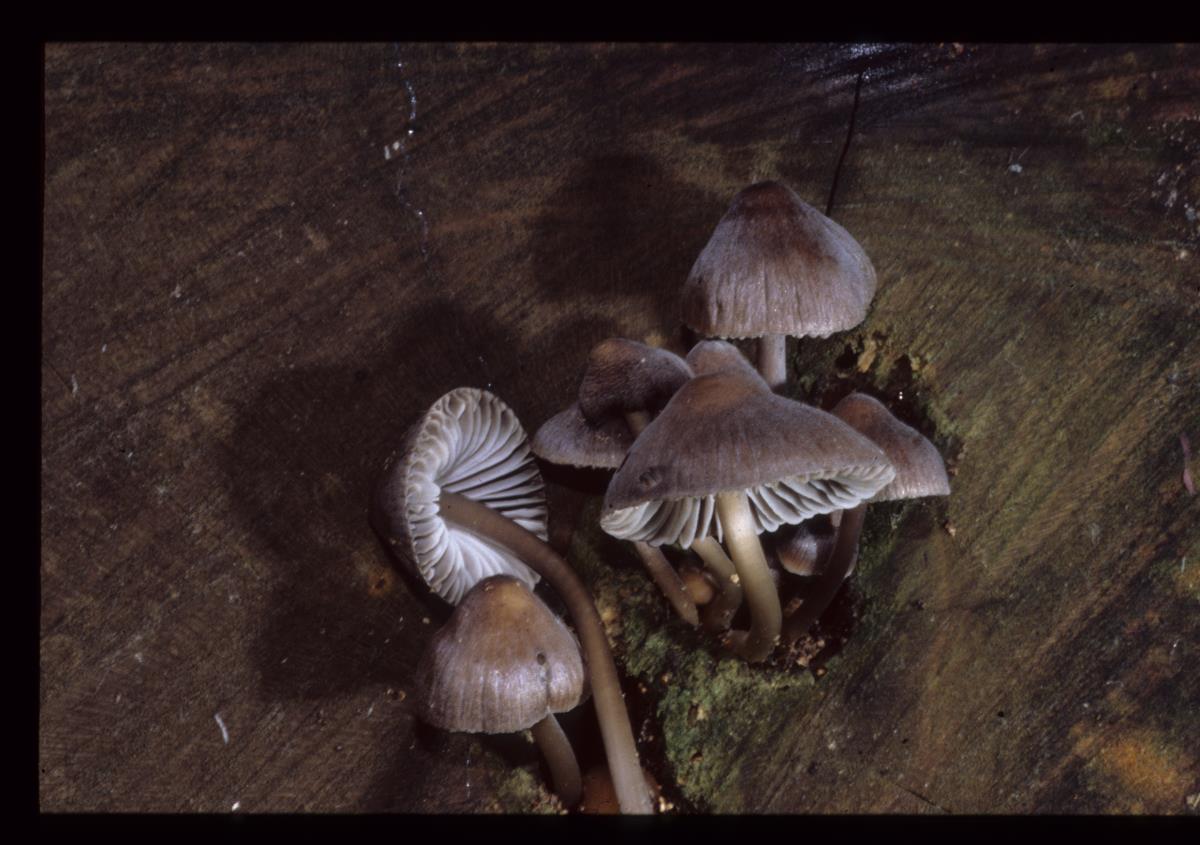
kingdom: Fungi
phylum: Basidiomycota
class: Agaricomycetes
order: Agaricales
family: Mycenaceae
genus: Mycena
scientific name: Mycena
